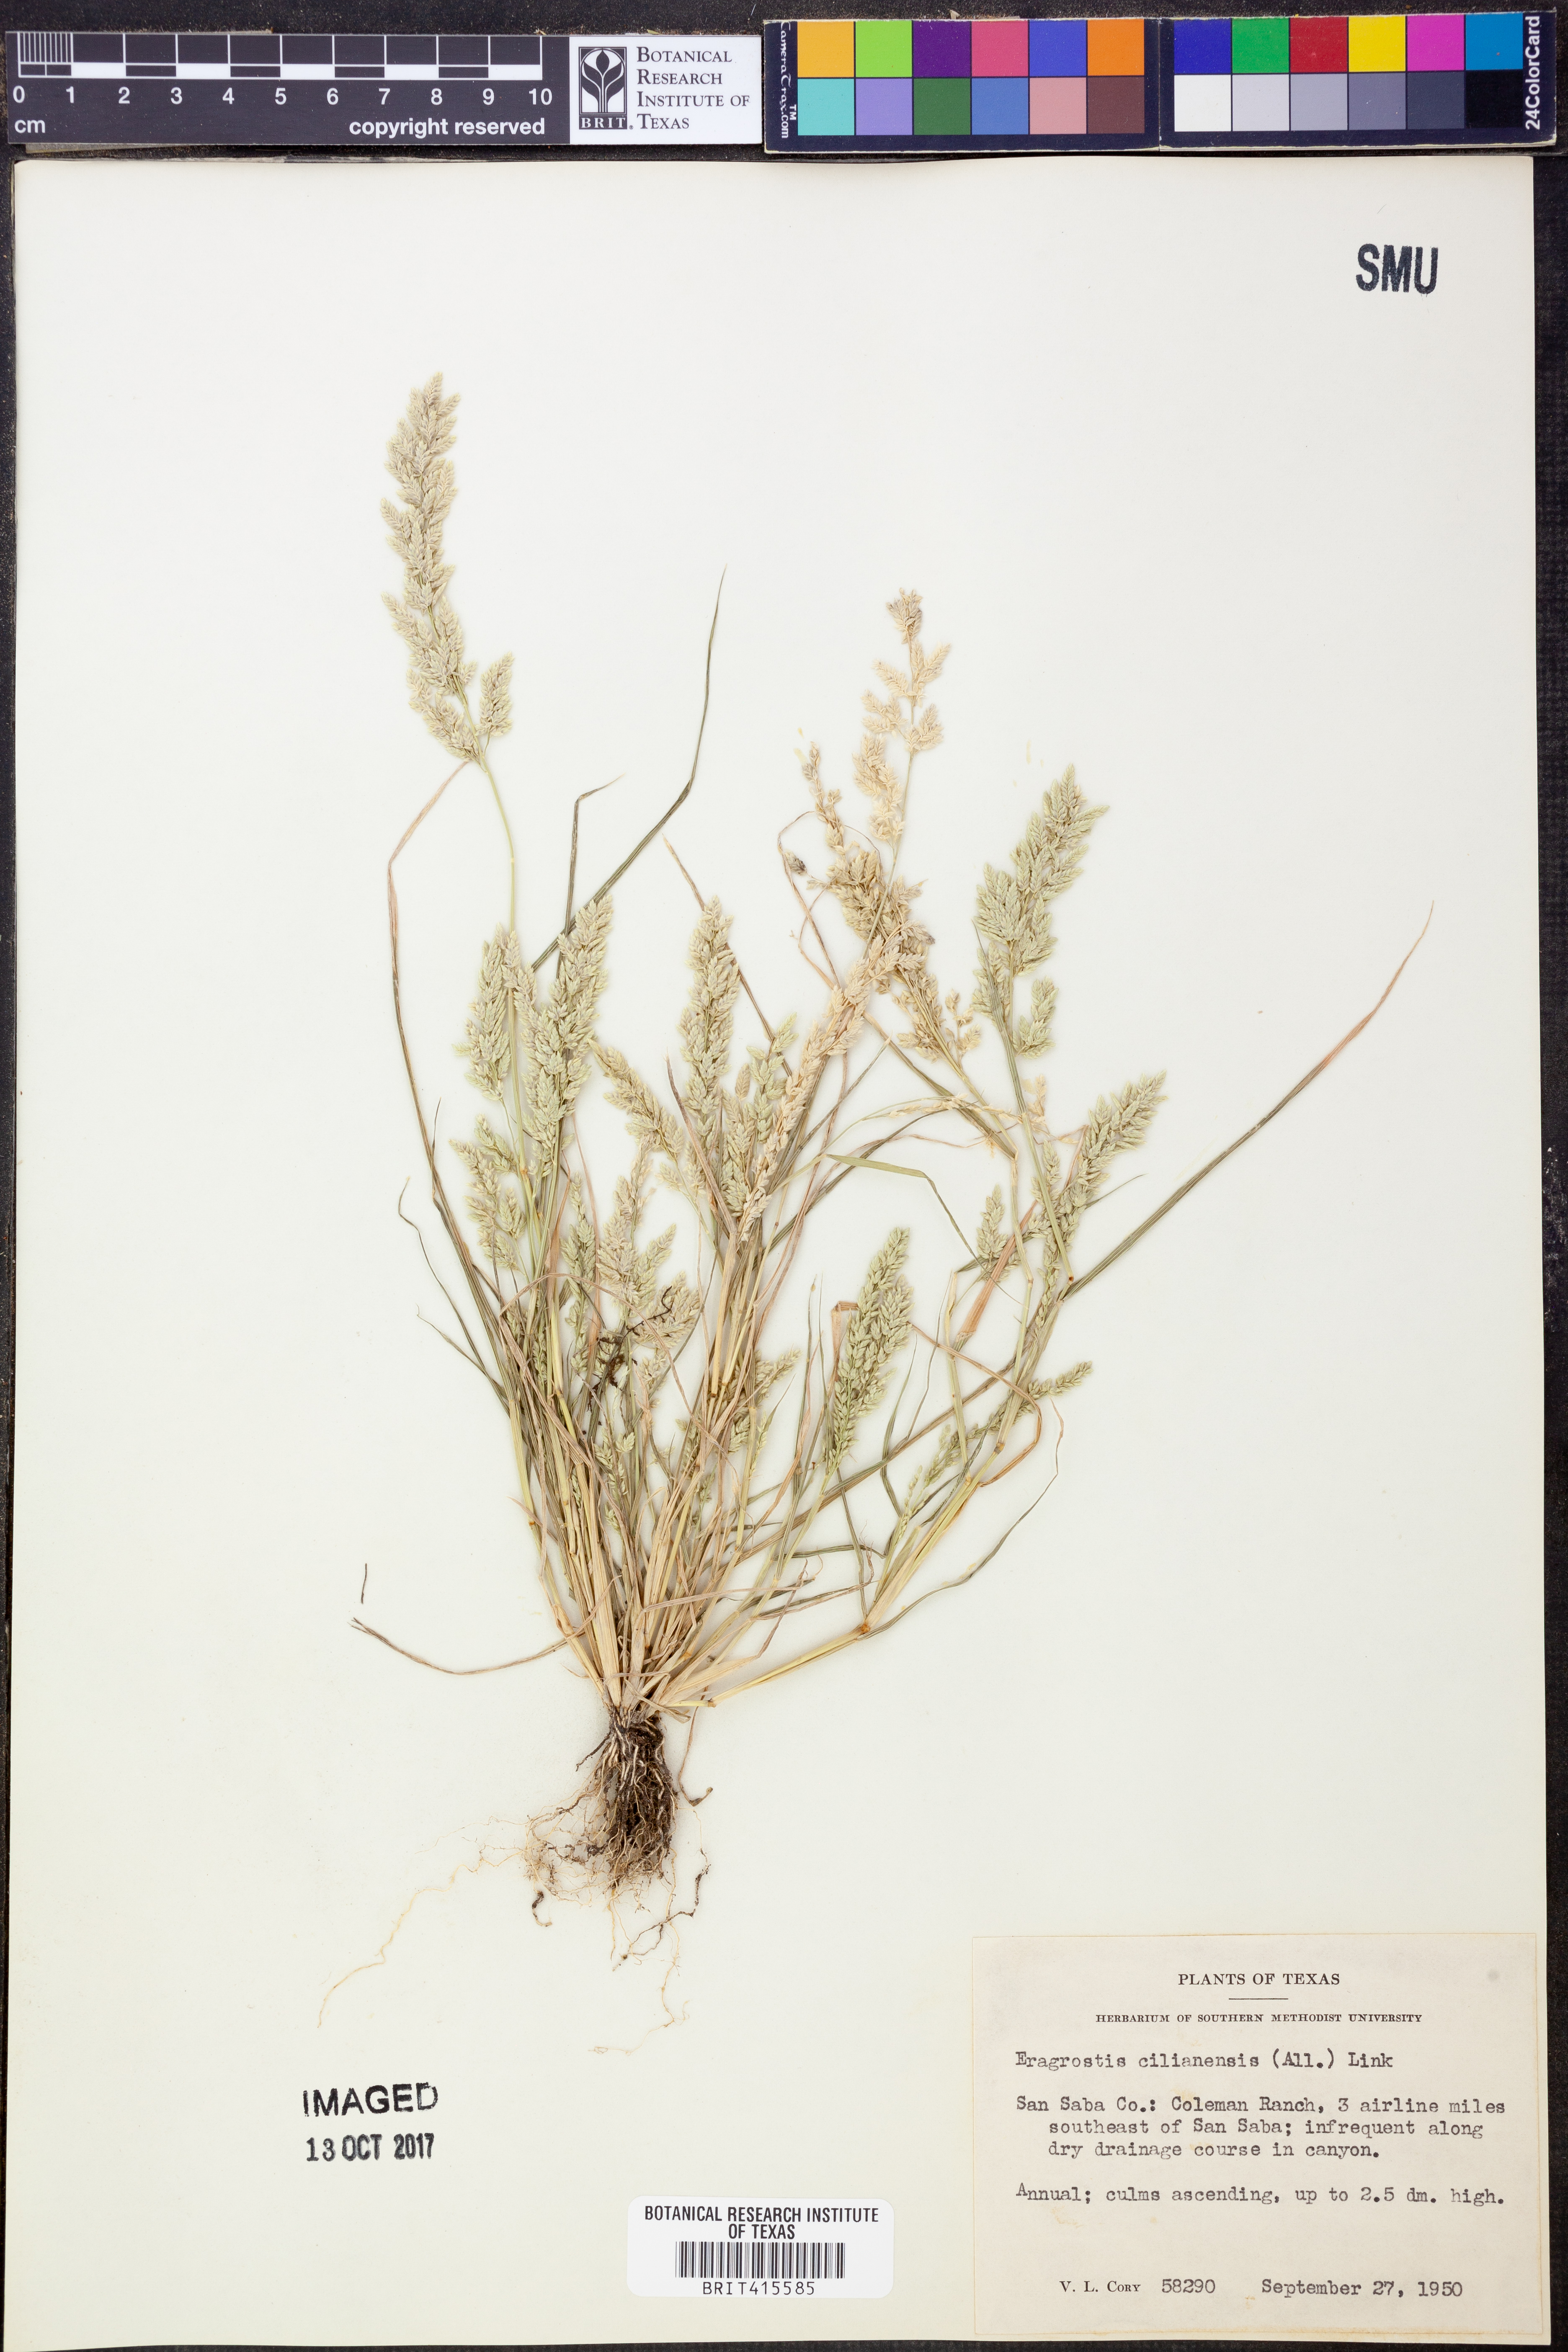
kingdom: Plantae
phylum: Tracheophyta
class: Liliopsida
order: Poales
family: Poaceae
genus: Eragrostis
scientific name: Eragrostis cilianensis
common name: Stinkgrass
